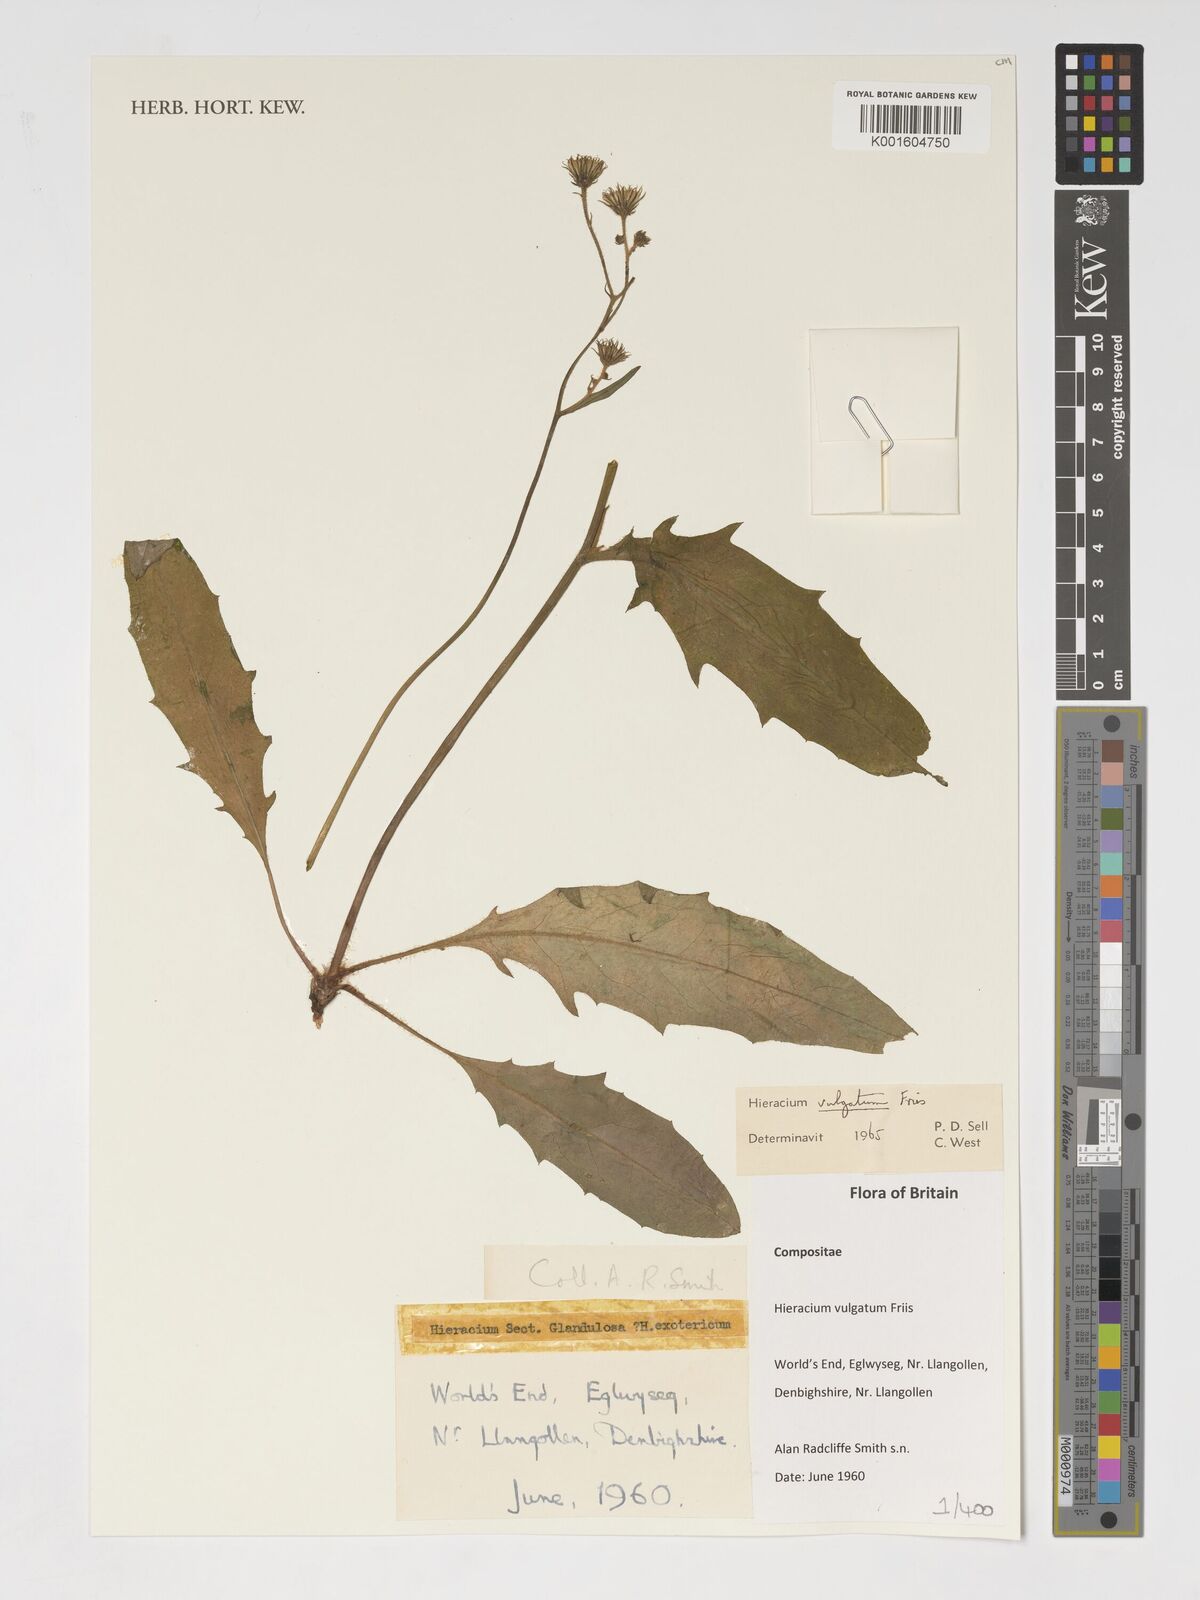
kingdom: Plantae
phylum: Tracheophyta
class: Magnoliopsida
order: Asterales
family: Asteraceae
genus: Hieracium
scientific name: Hieracium lachenalii
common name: Common hawkweed
